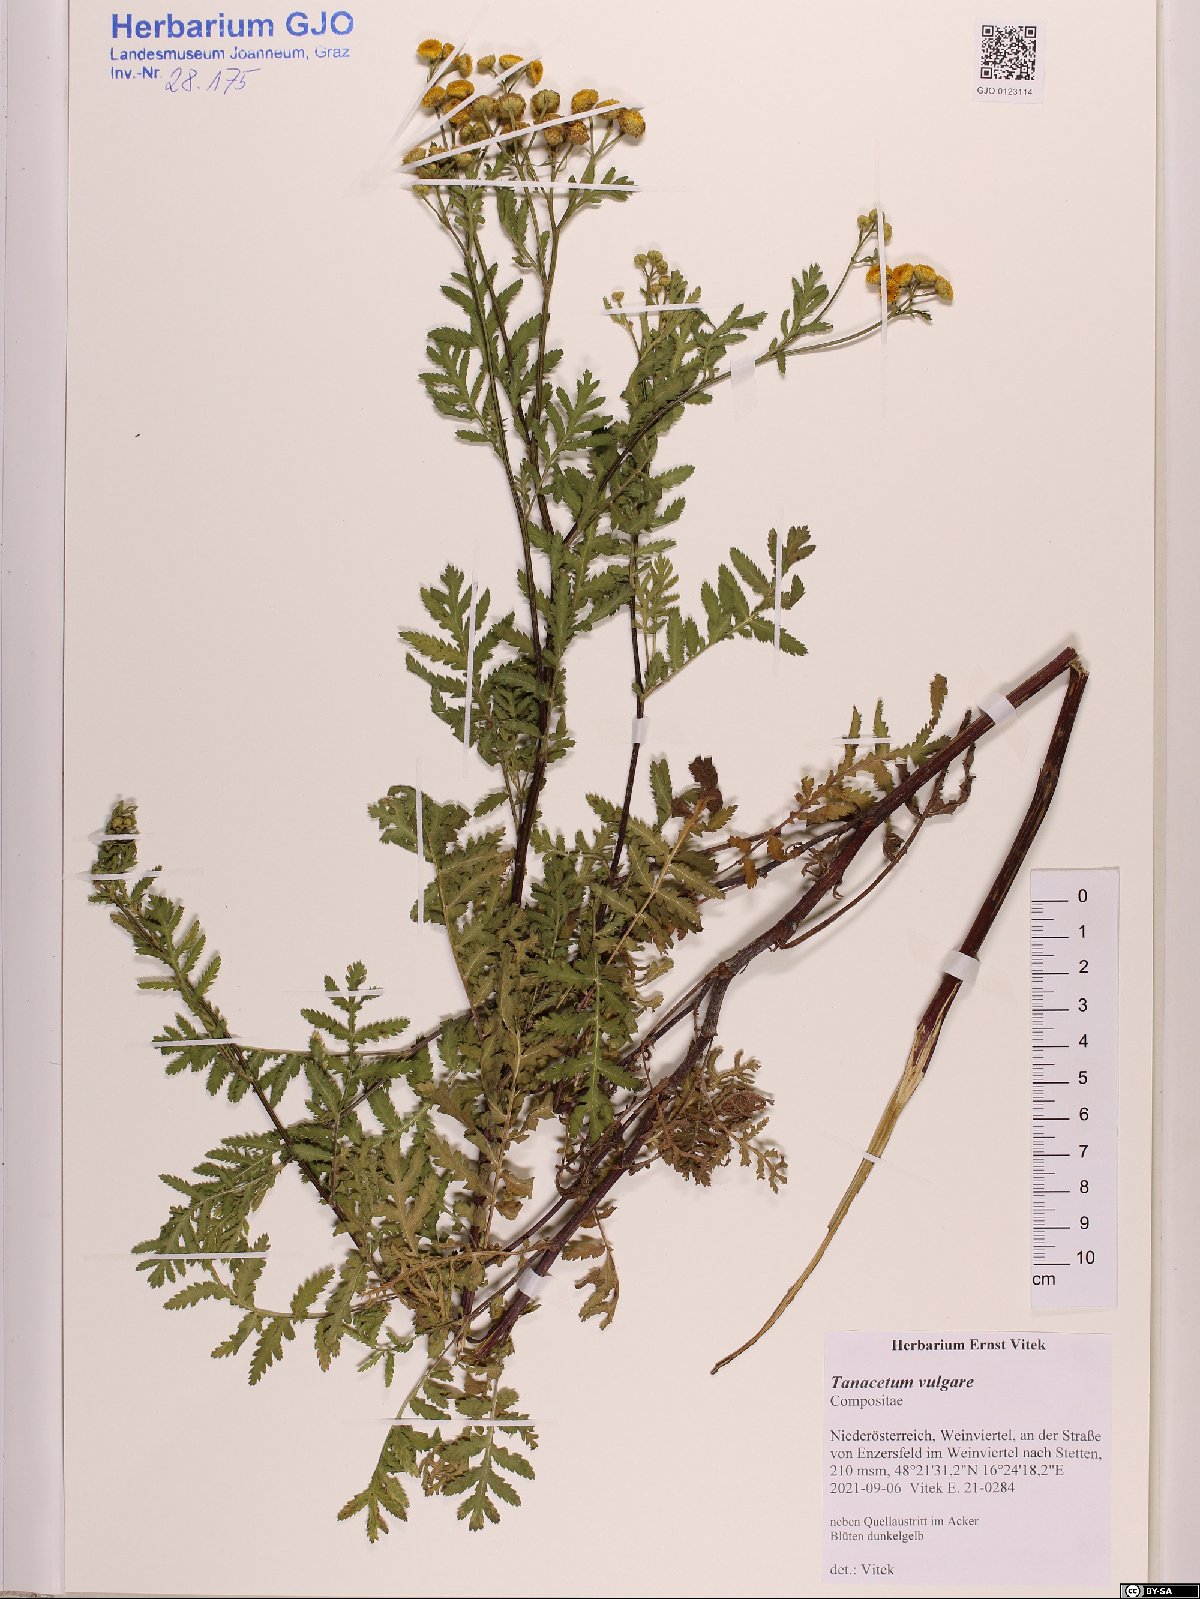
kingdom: Plantae
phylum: Tracheophyta
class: Magnoliopsida
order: Asterales
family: Asteraceae
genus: Tanacetum
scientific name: Tanacetum vulgare
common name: Common tansy
